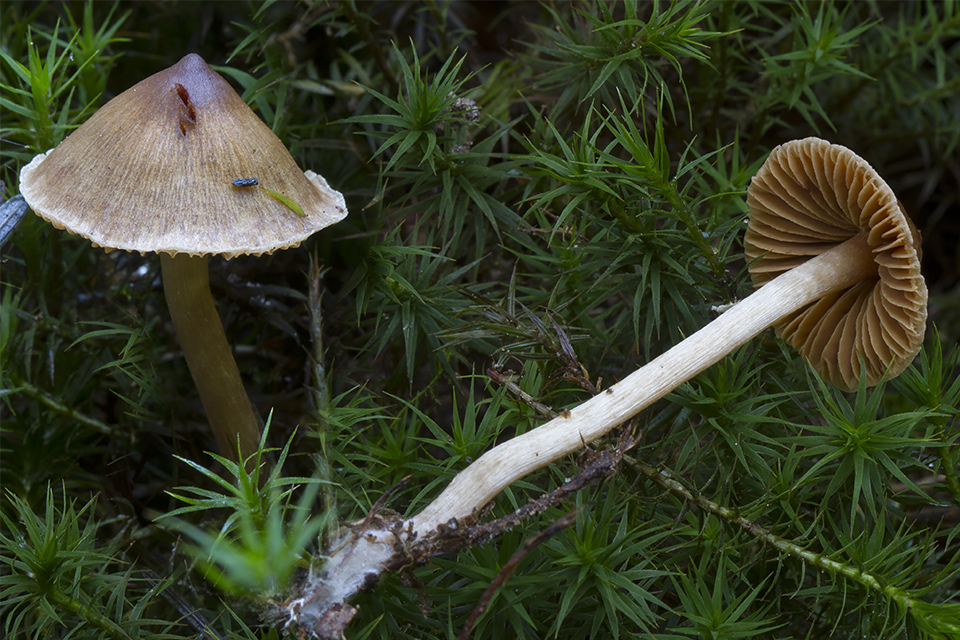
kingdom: Fungi
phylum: Basidiomycota
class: Agaricomycetes
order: Agaricales
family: Cortinariaceae
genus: Cortinarius
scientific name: Cortinarius
